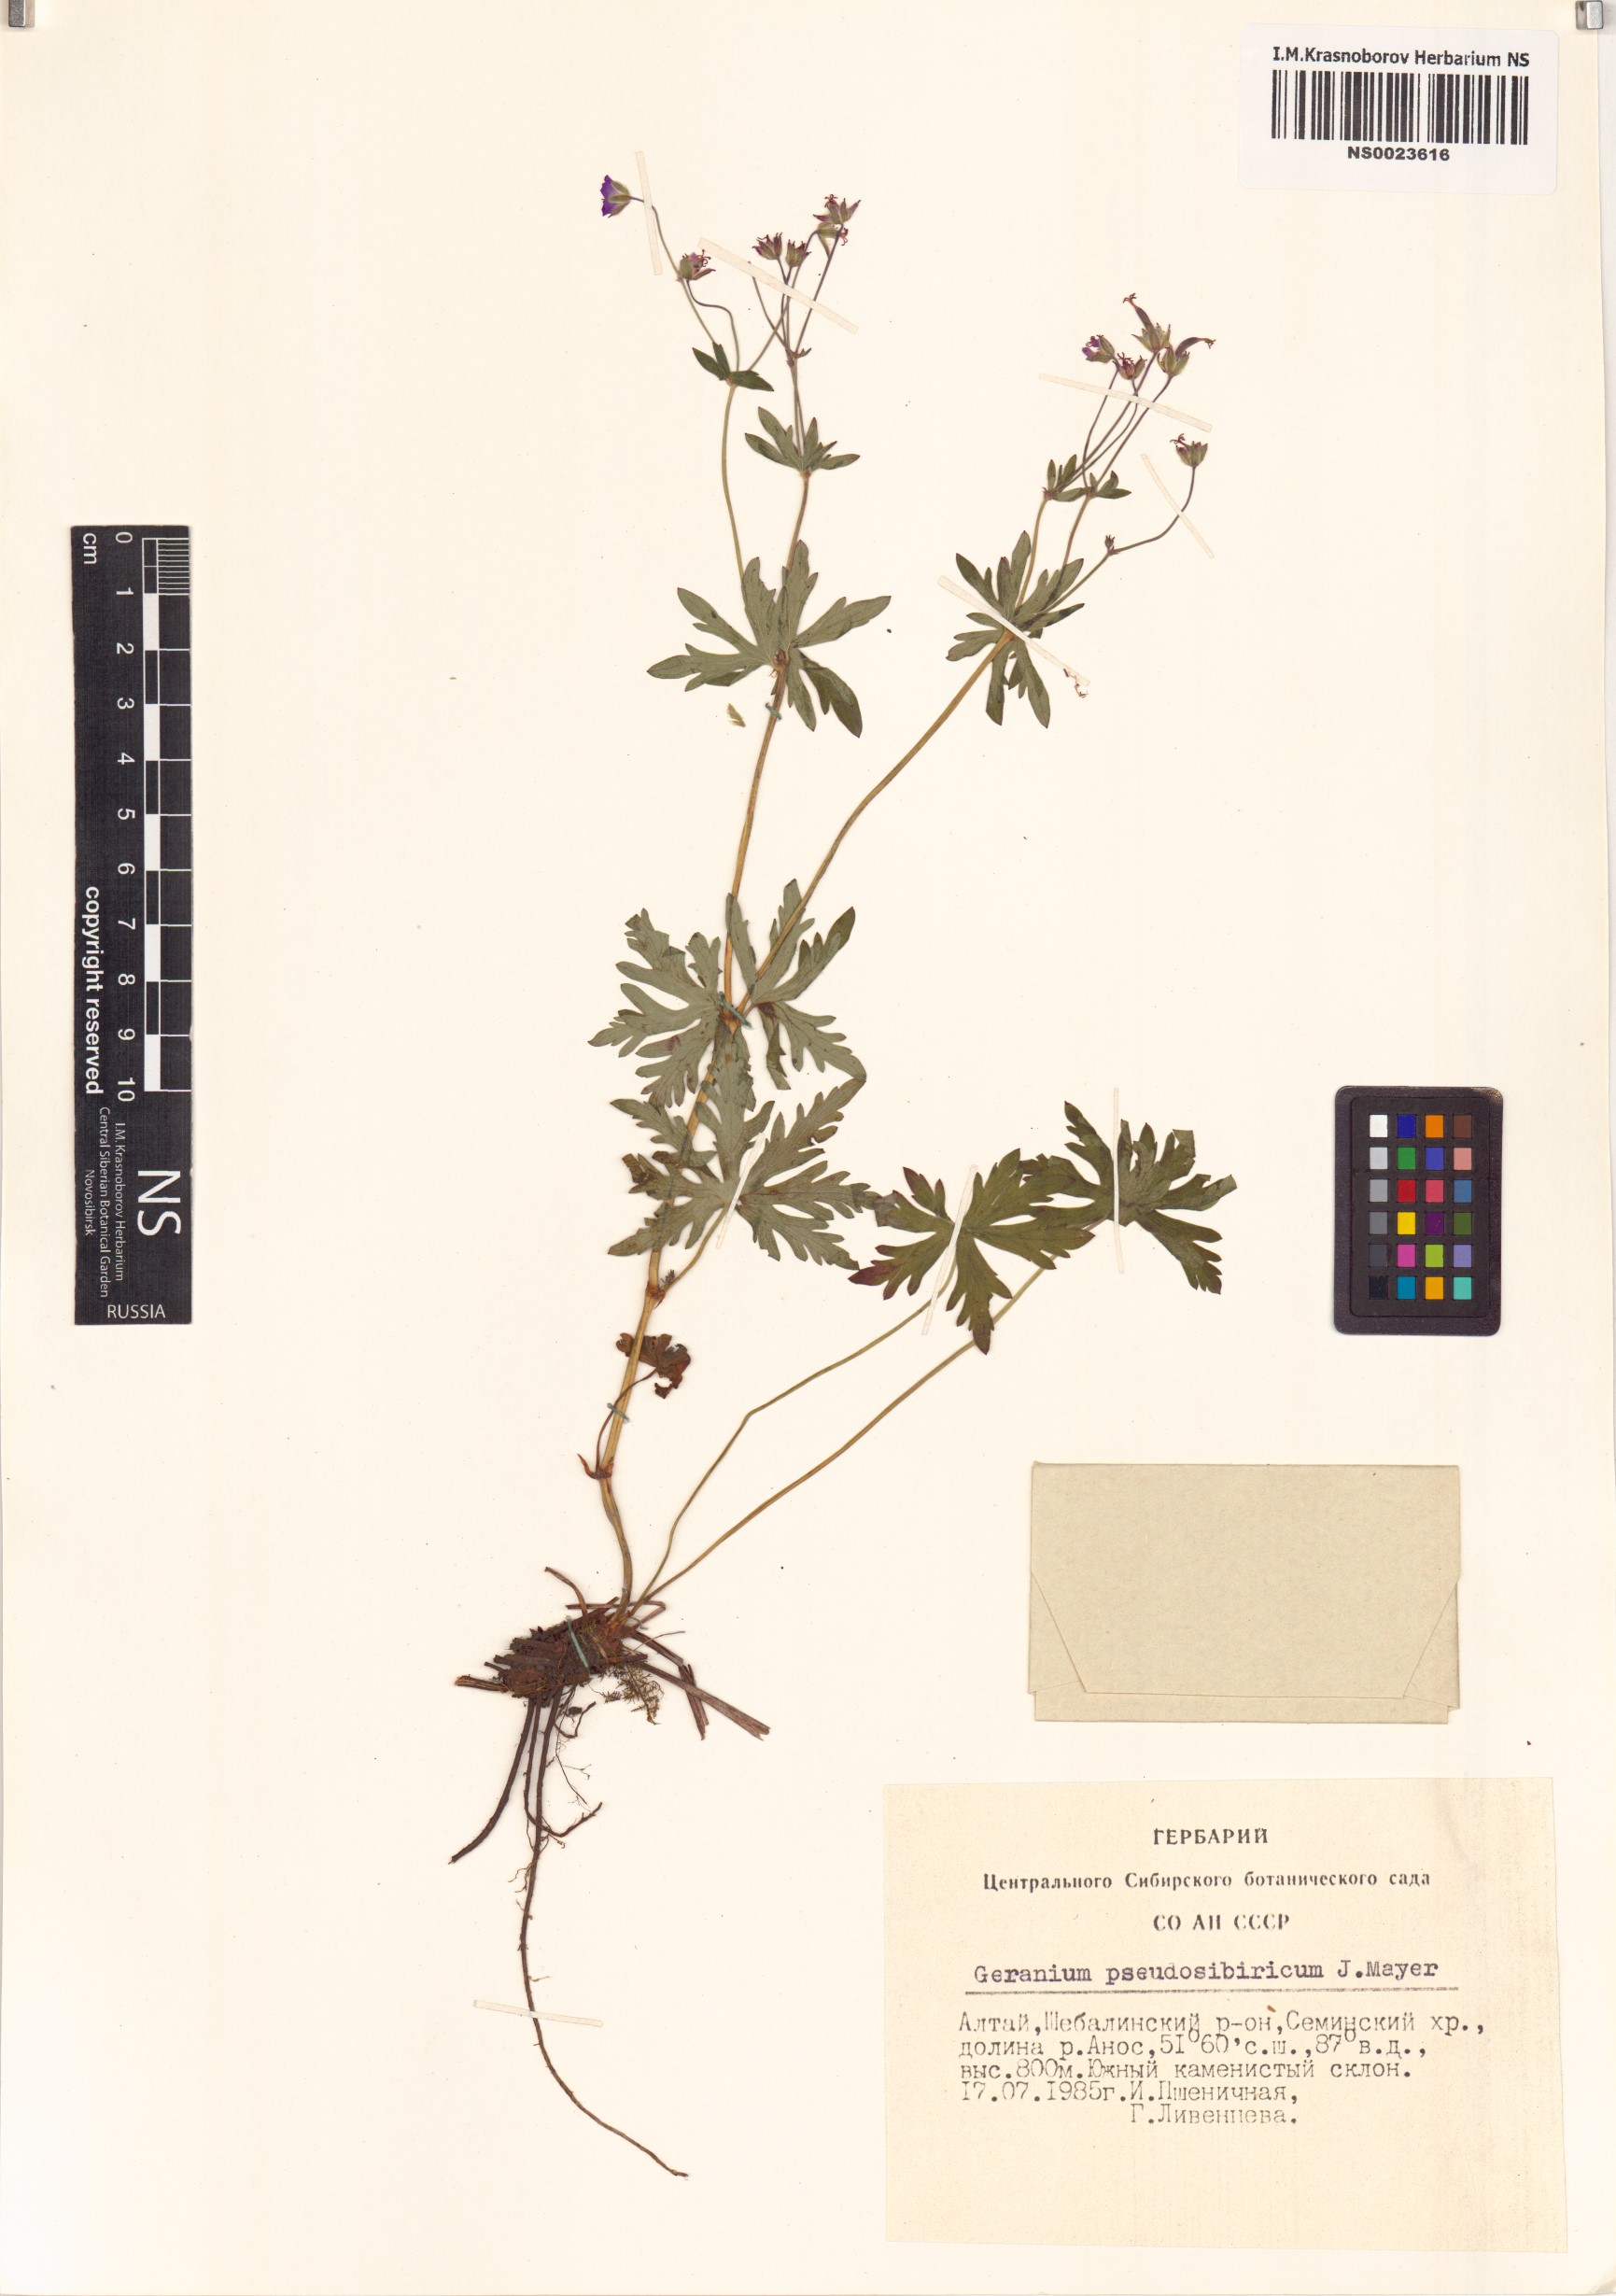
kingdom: Plantae
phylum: Tracheophyta
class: Magnoliopsida
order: Geraniales
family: Geraniaceae
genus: Geranium
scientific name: Geranium pseudosibiricum
